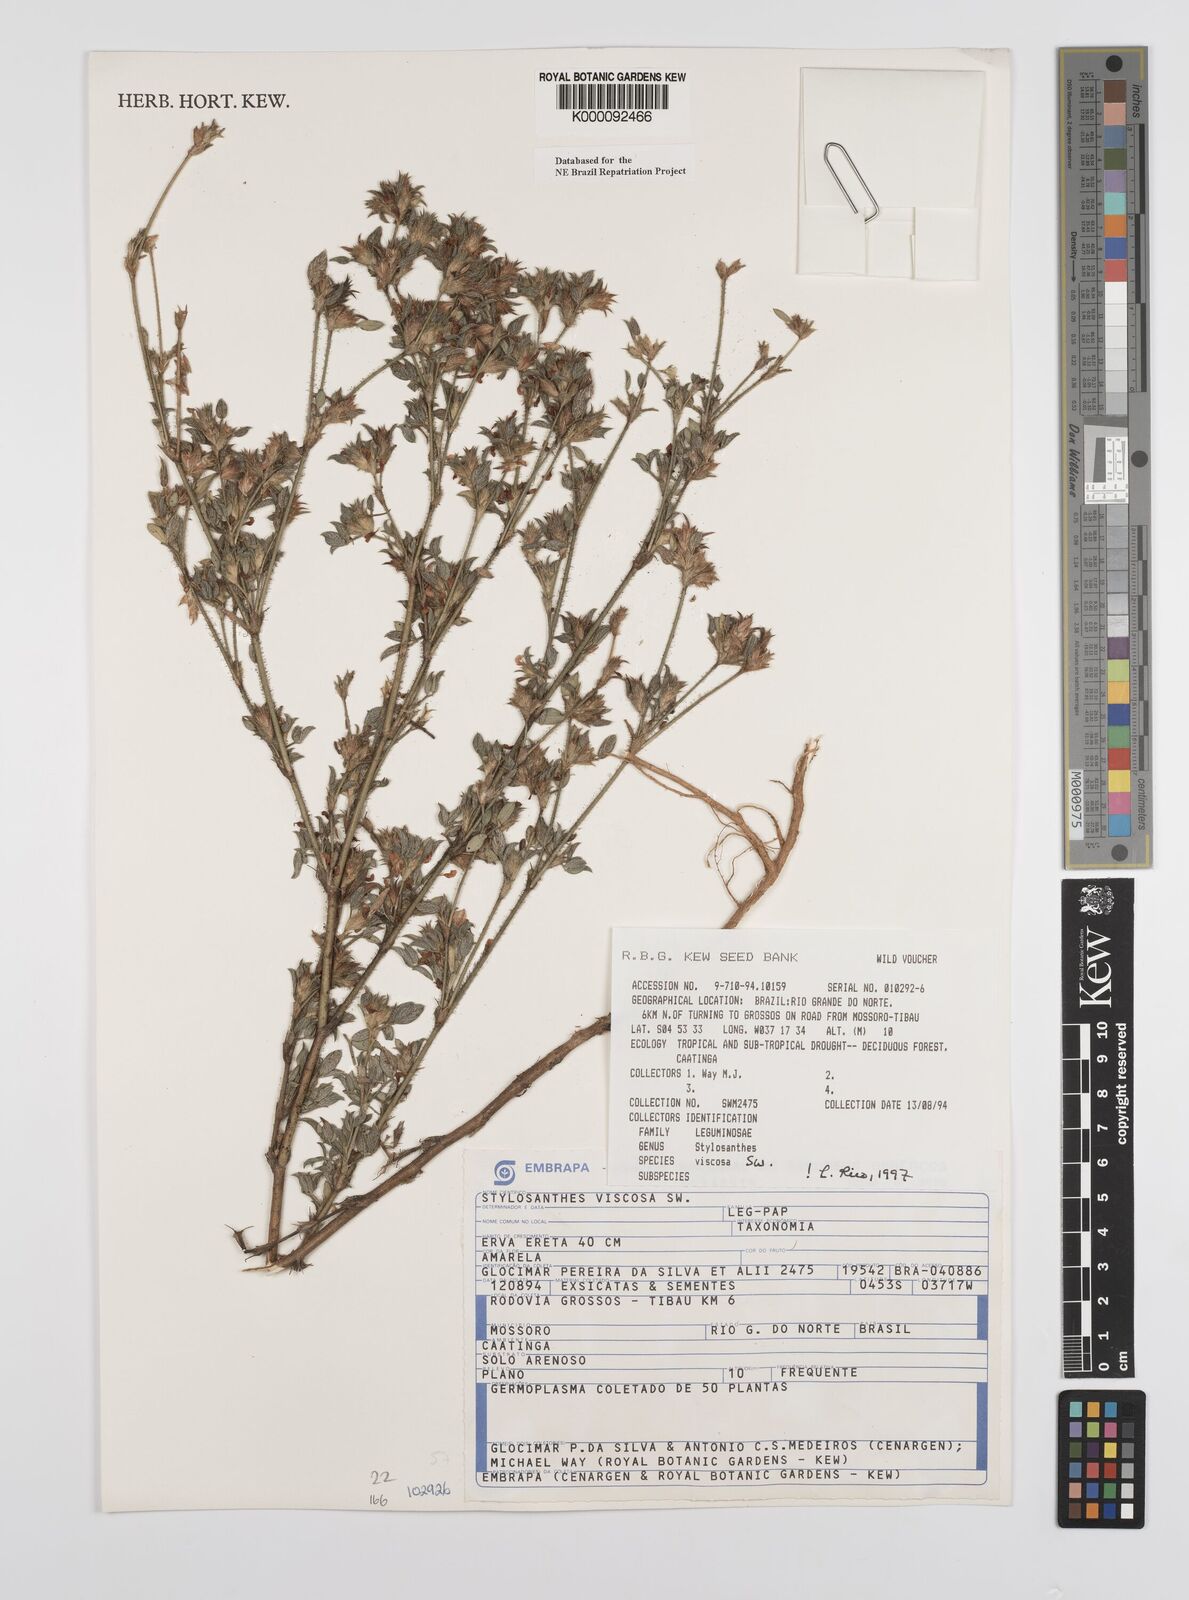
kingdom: Plantae
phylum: Tracheophyta
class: Magnoliopsida
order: Fabales
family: Fabaceae
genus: Stylosanthes
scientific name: Stylosanthes viscosa
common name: Viscid pencil-flower
